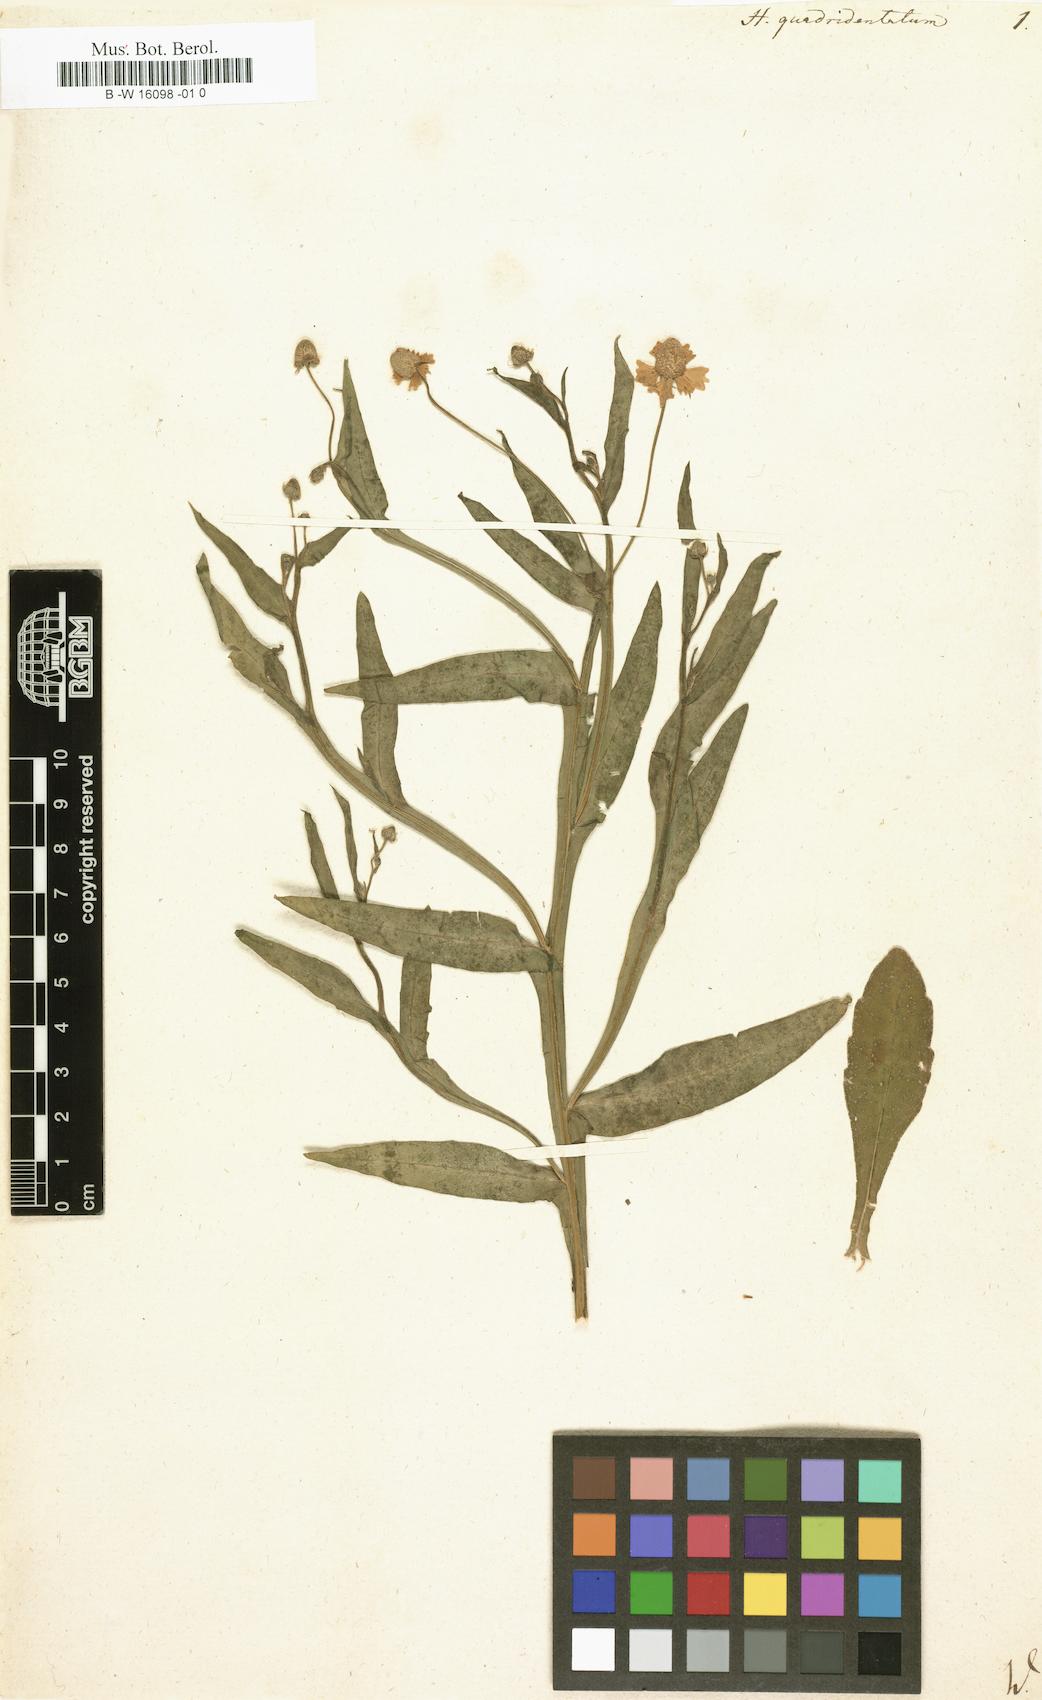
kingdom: Plantae
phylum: Tracheophyta
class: Magnoliopsida
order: Asterales
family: Asteraceae
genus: Helenium
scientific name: Helenium quadridentatum
